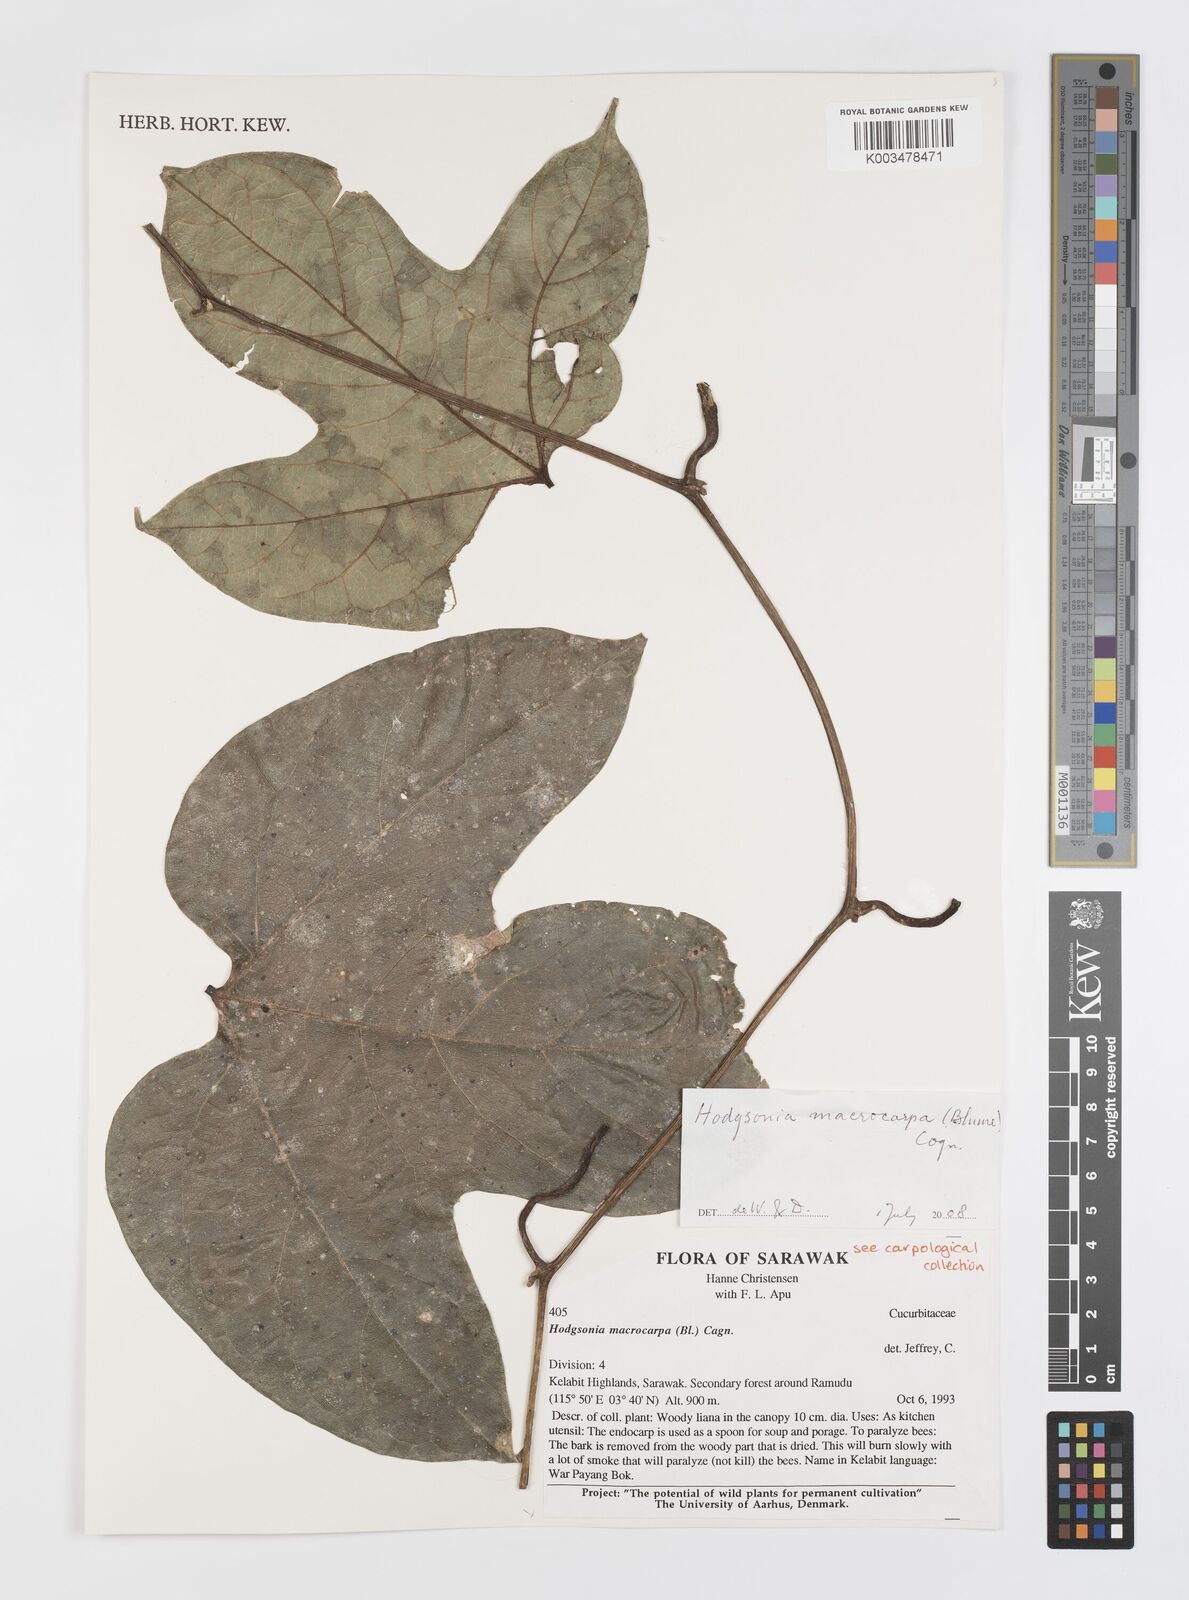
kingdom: Plantae
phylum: Tracheophyta
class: Magnoliopsida
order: Cucurbitales
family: Cucurbitaceae
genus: Hodgsonia
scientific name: Hodgsonia macrocarpa
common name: Chinese lardfruit
